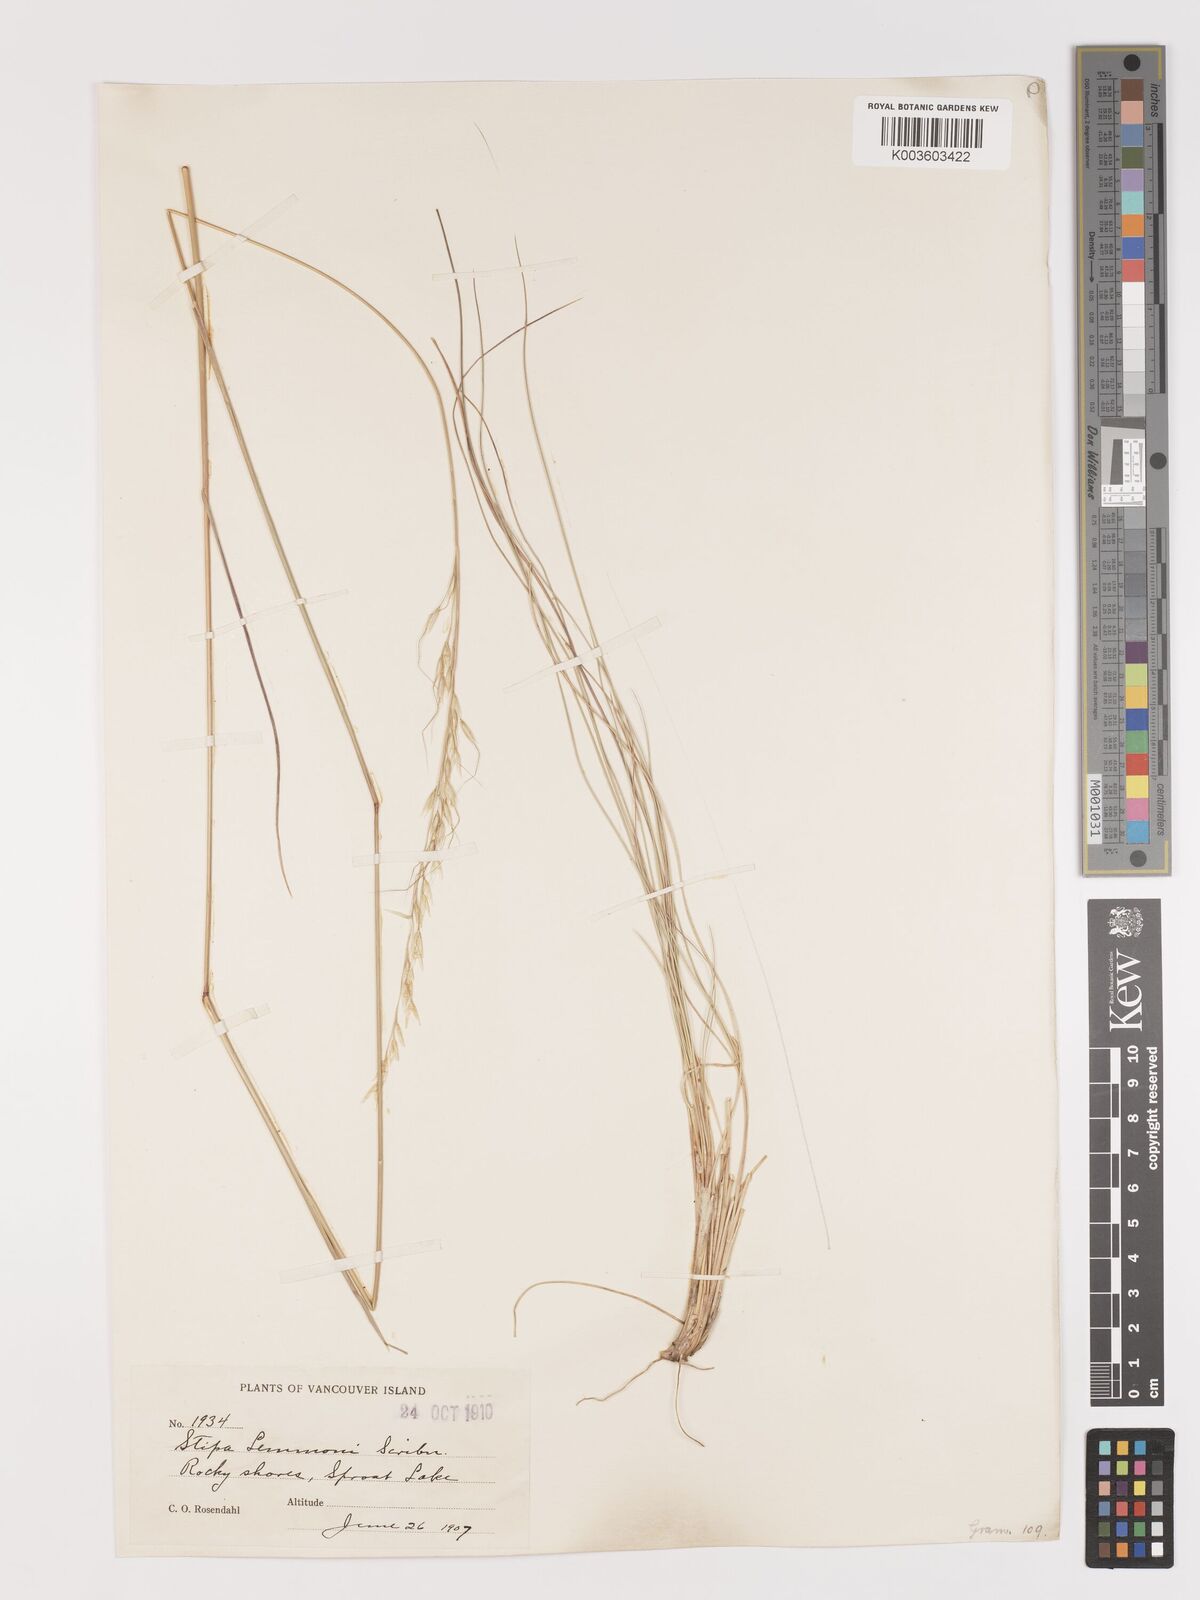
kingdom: Plantae
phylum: Tracheophyta
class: Liliopsida
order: Poales
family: Poaceae
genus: Eriocoma
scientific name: Eriocoma lemmonii
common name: Lemmon's needlegrass
